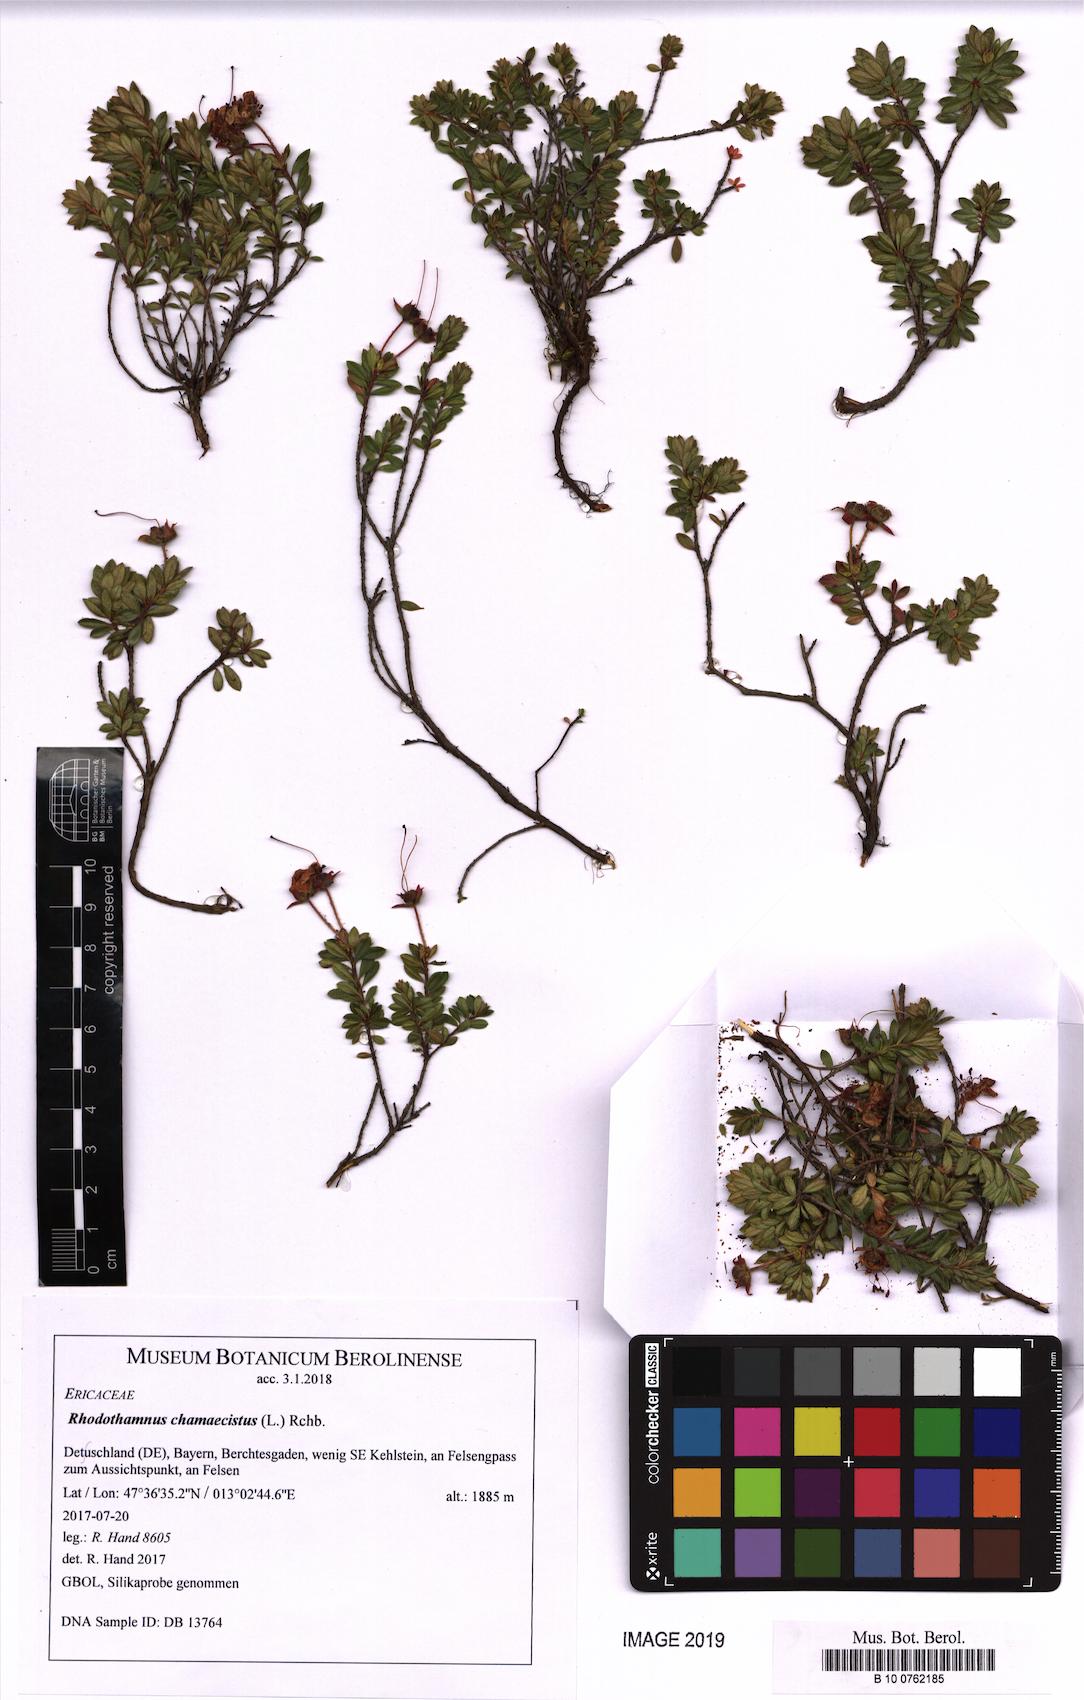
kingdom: Plantae
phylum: Tracheophyta
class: Magnoliopsida
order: Ericales
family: Ericaceae
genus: Rhodothamnus
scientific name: Rhodothamnus chamaecistus
